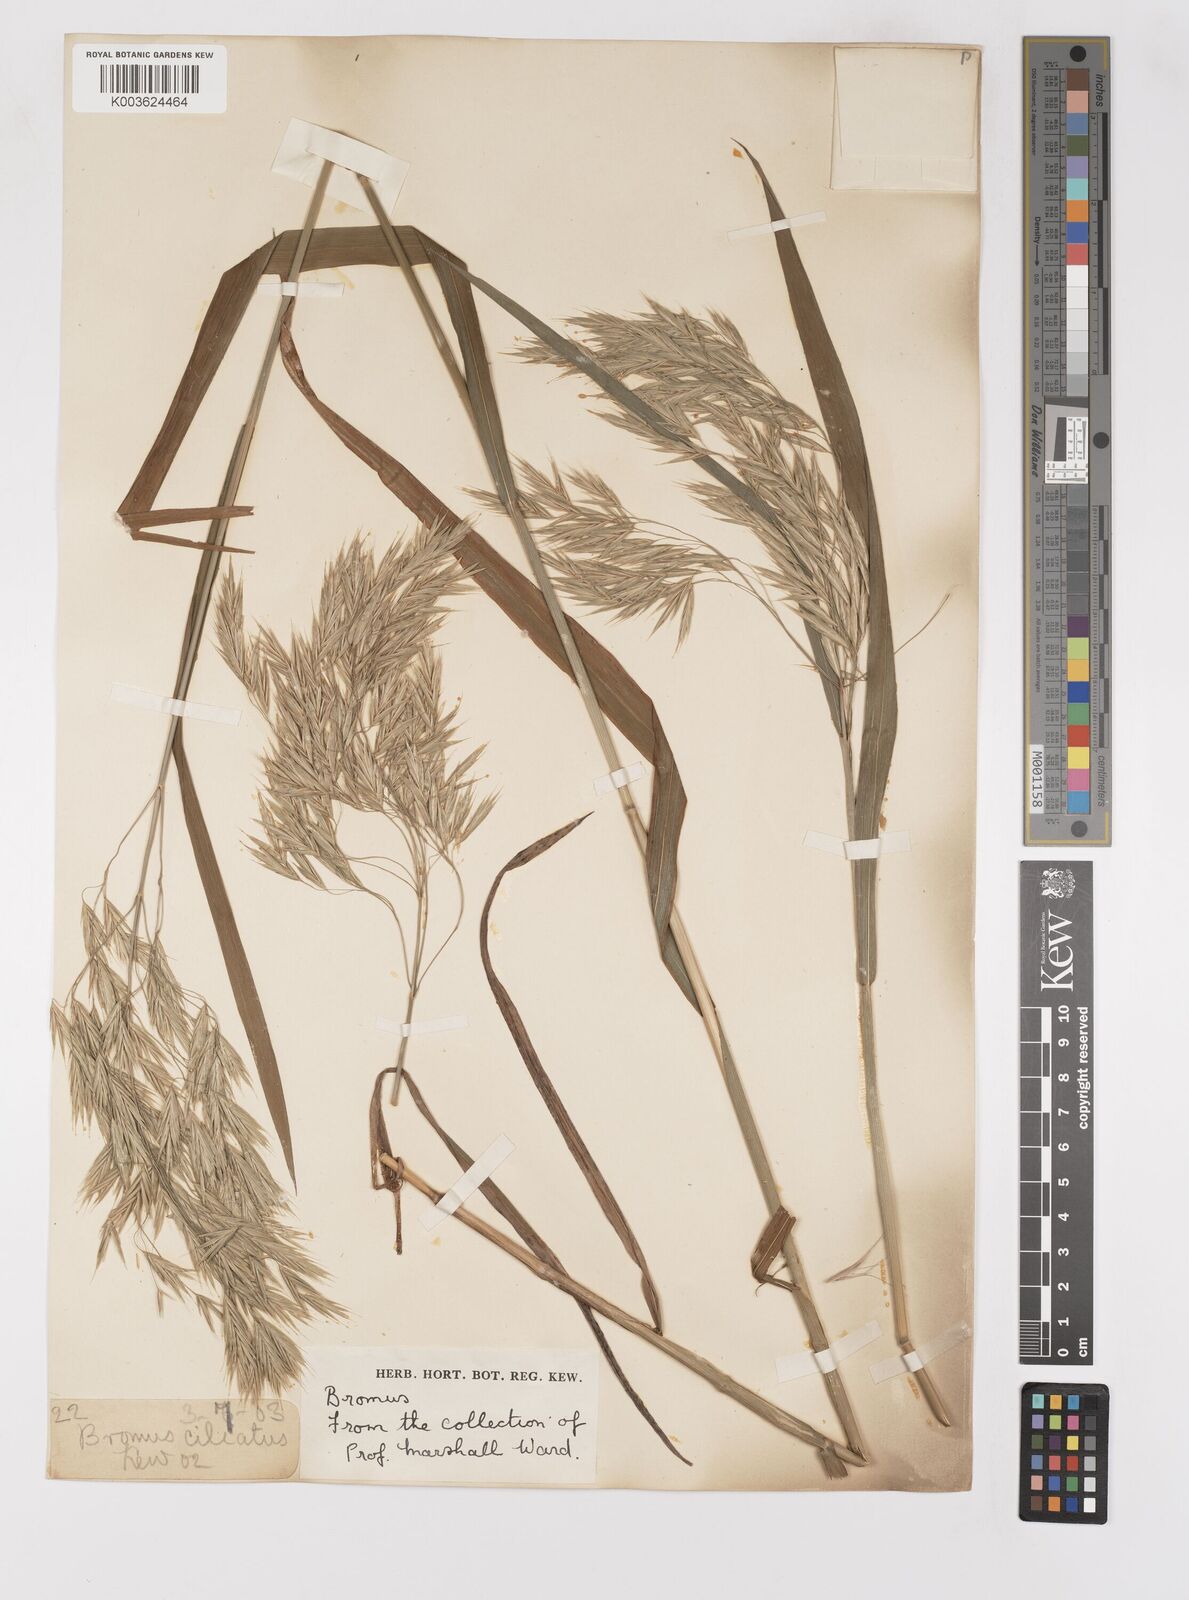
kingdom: Plantae
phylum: Tracheophyta
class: Liliopsida
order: Poales
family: Poaceae
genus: Bromus
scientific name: Bromus
